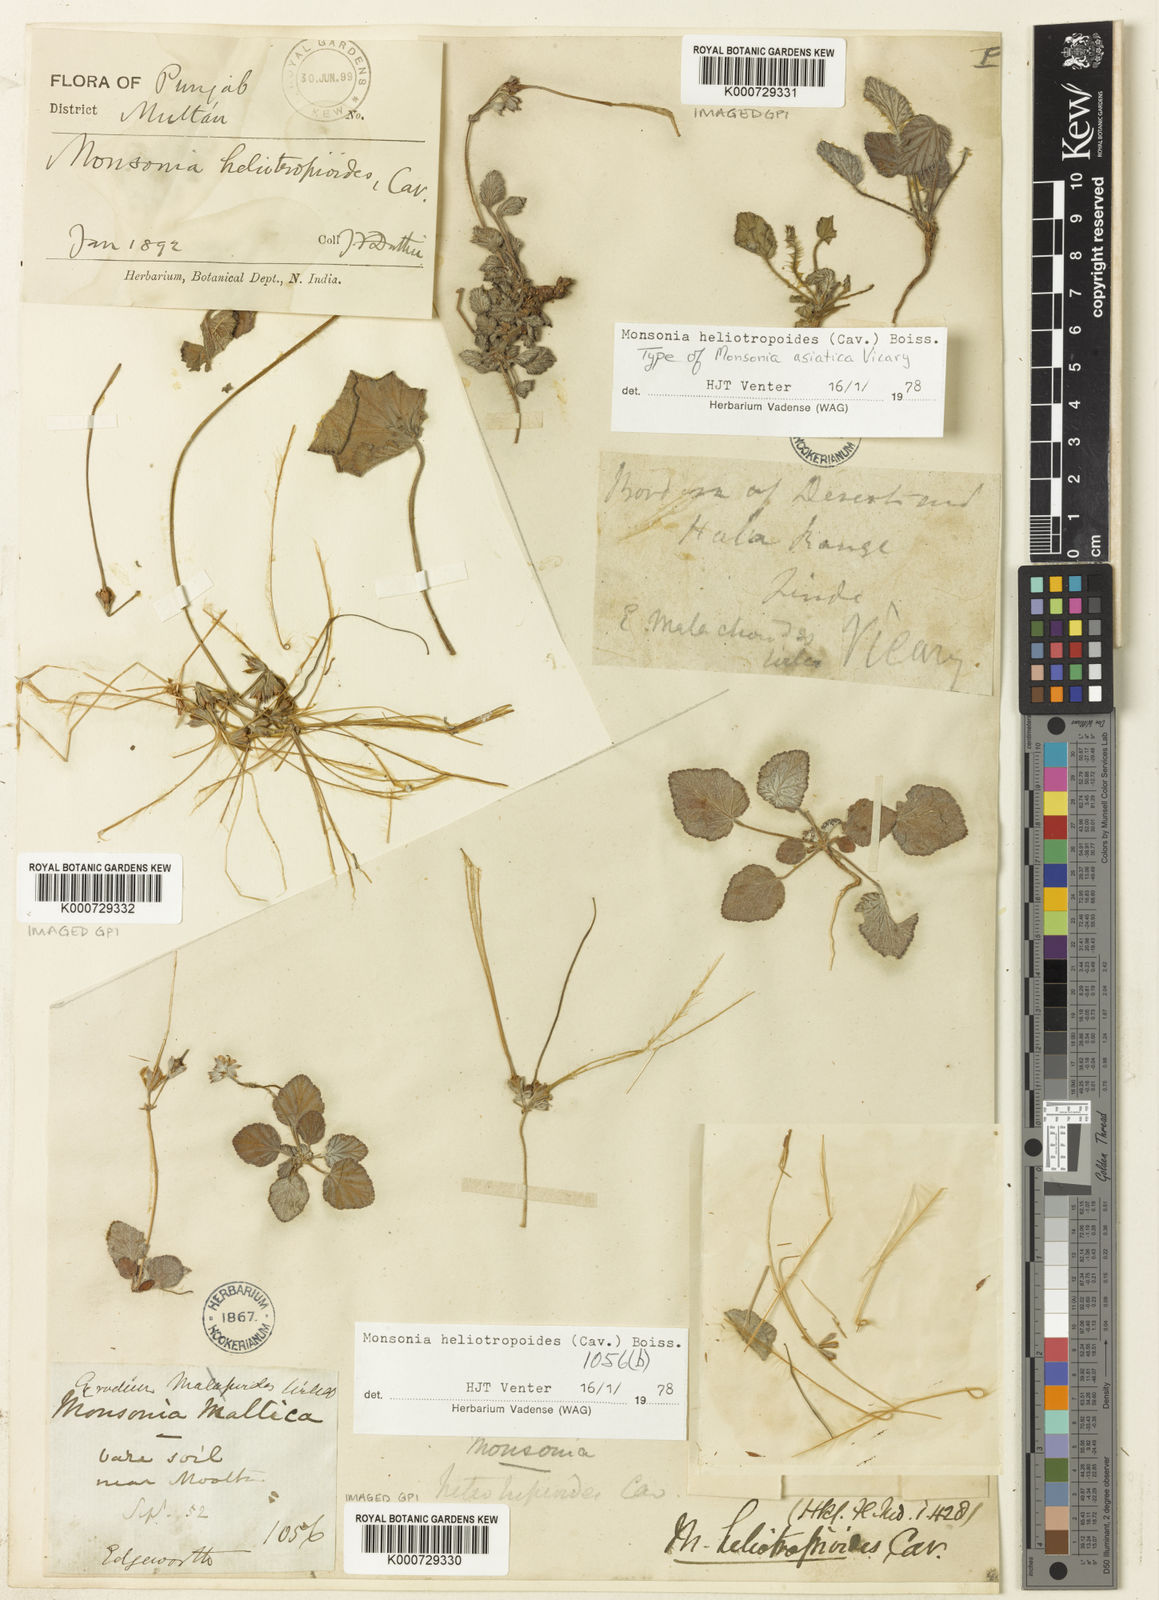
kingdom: Plantae
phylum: Tracheophyta
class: Magnoliopsida
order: Geraniales
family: Geraniaceae
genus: Monsonia
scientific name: Monsonia
